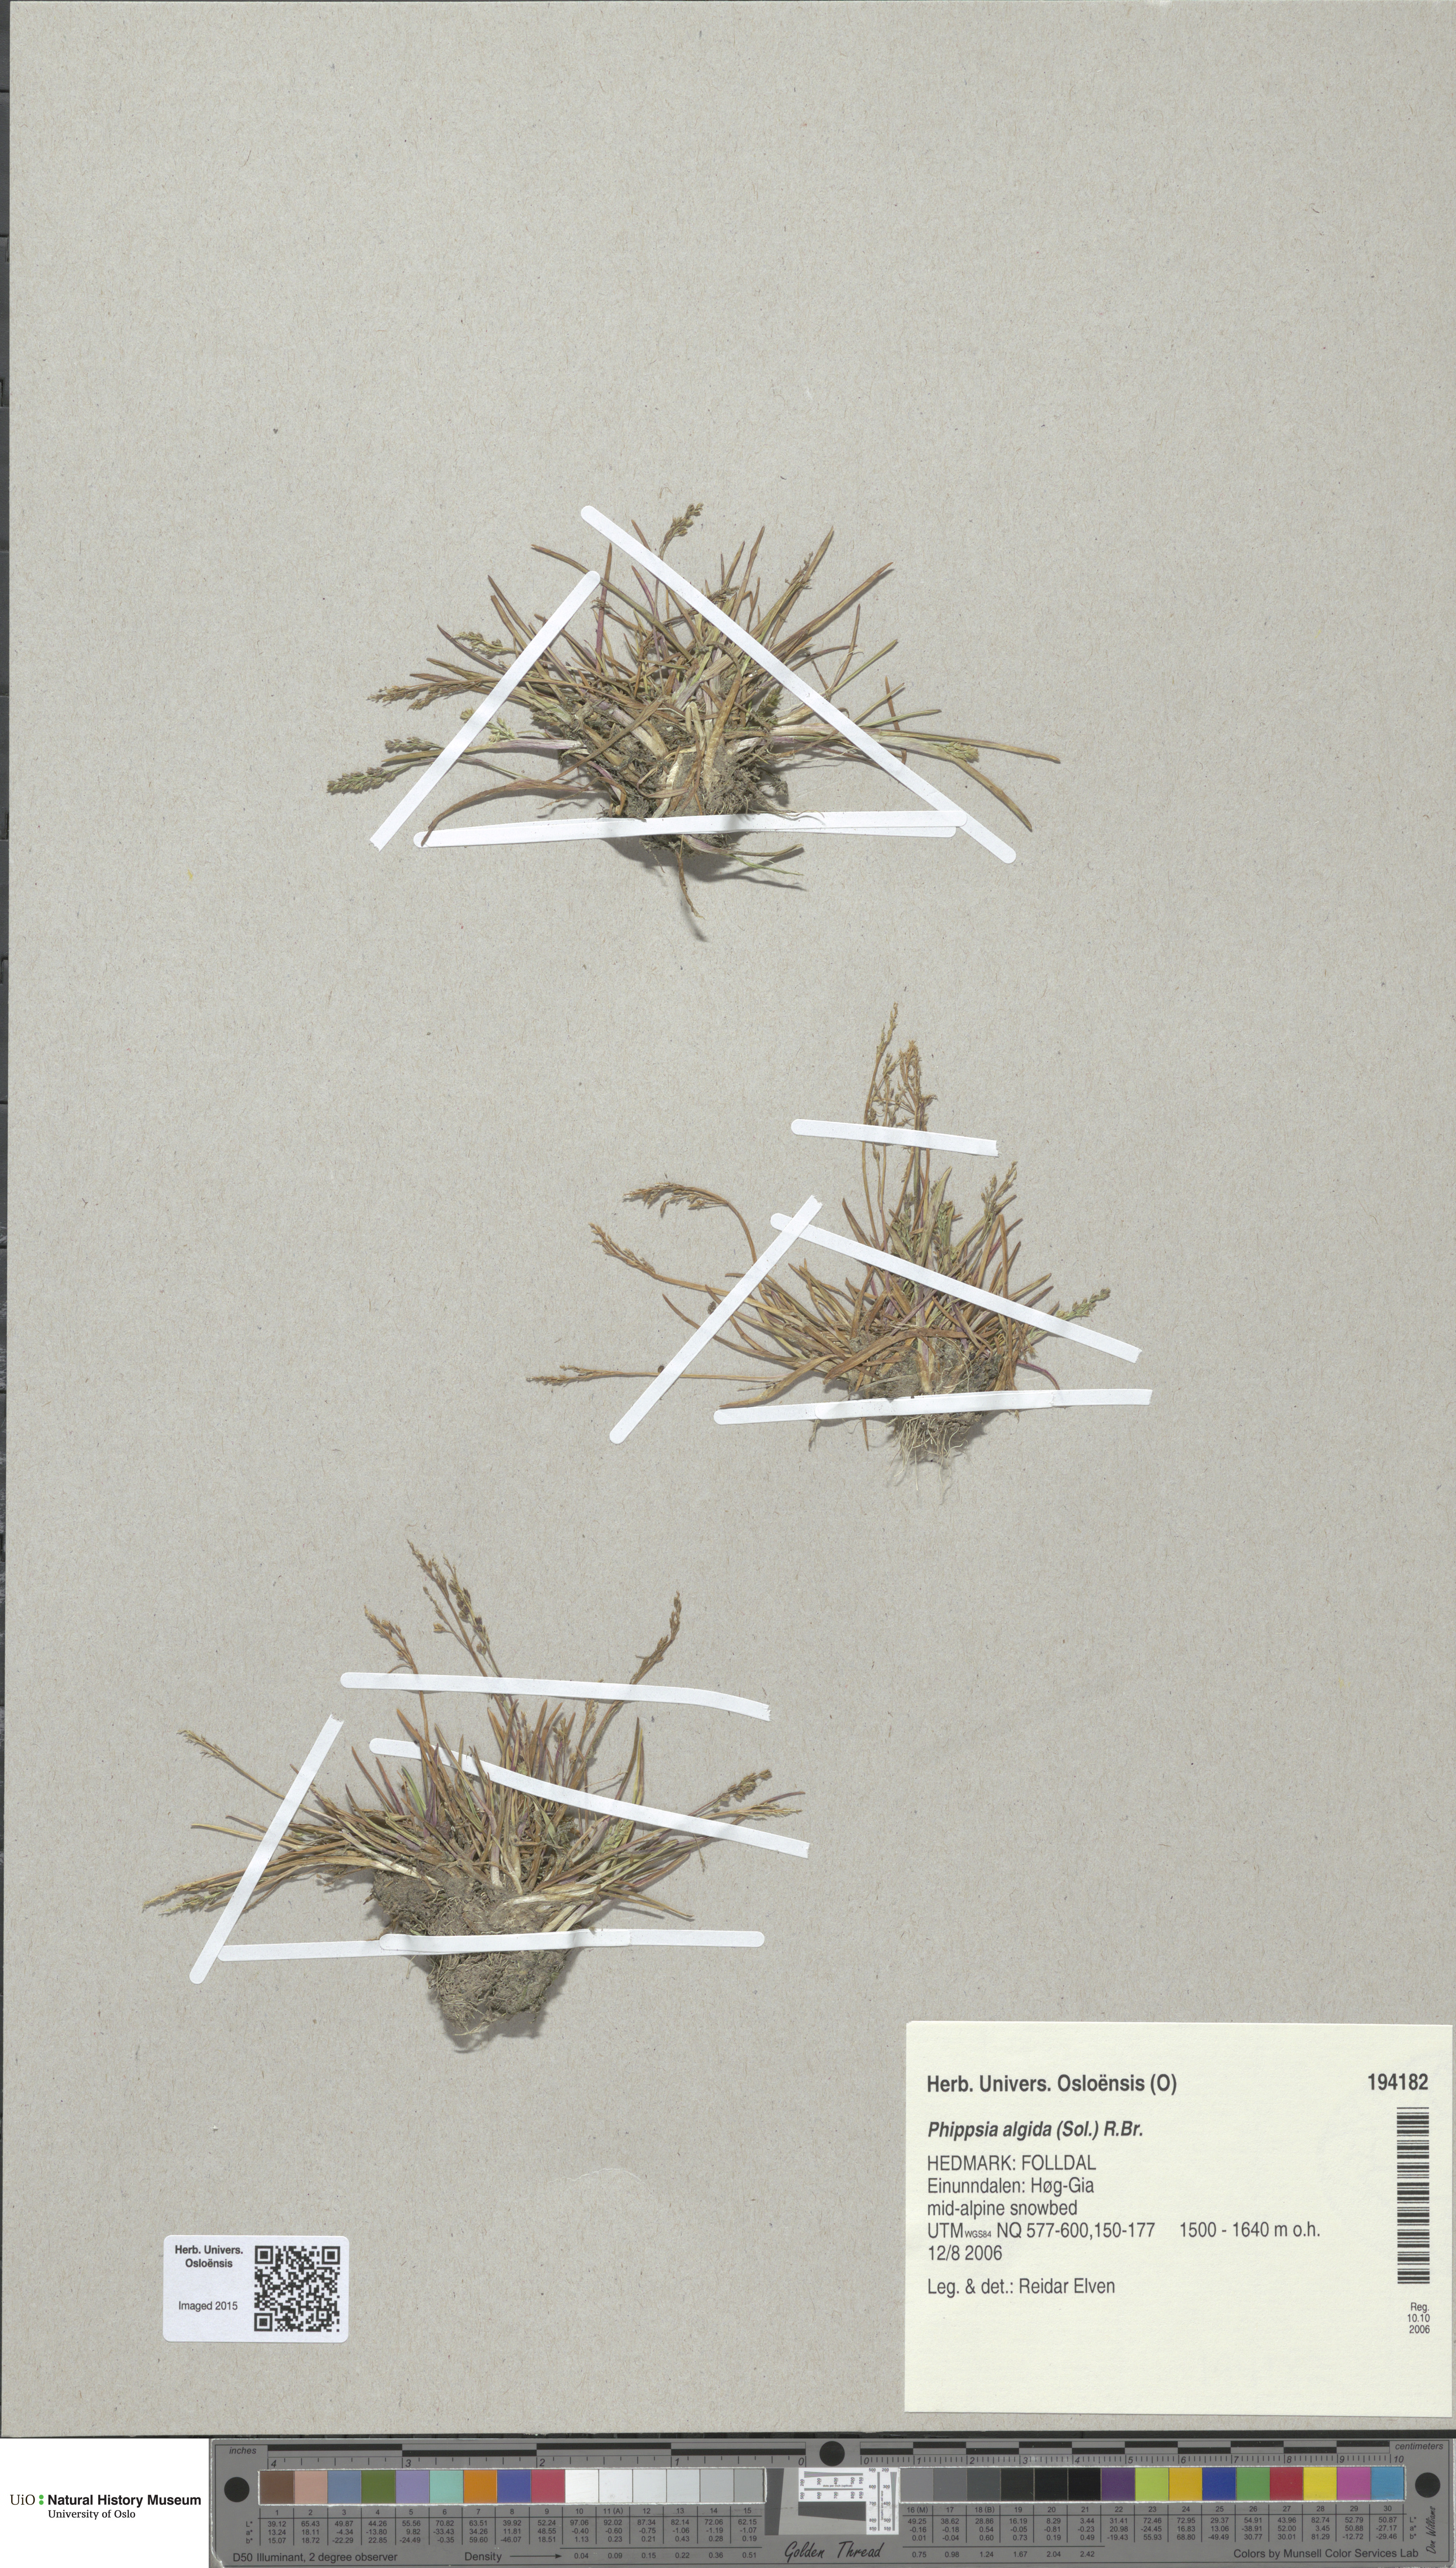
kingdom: Plantae
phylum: Tracheophyta
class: Liliopsida
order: Poales
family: Poaceae
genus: Phippsia
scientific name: Phippsia algida
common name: Ice grass
